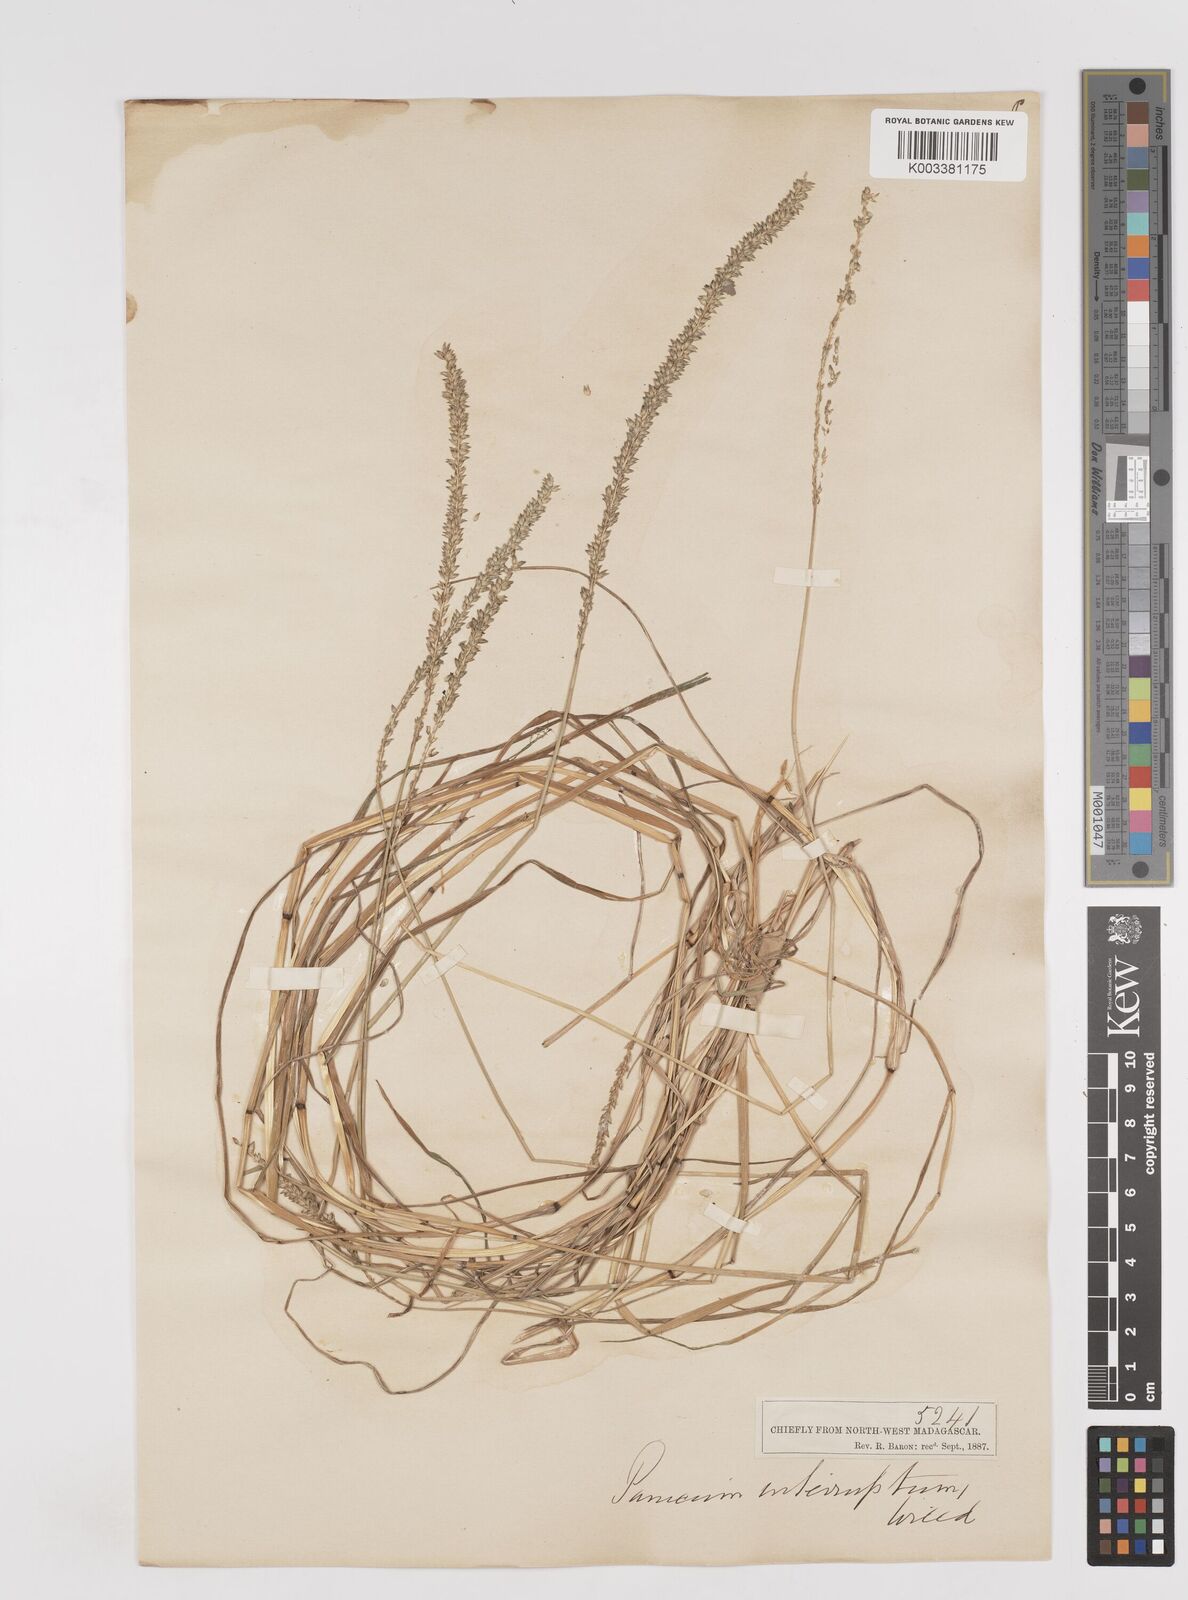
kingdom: Plantae
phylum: Tracheophyta
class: Liliopsida
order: Poales
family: Poaceae
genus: Sacciolepis
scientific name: Sacciolepis indica
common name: Glenwoodgrass
